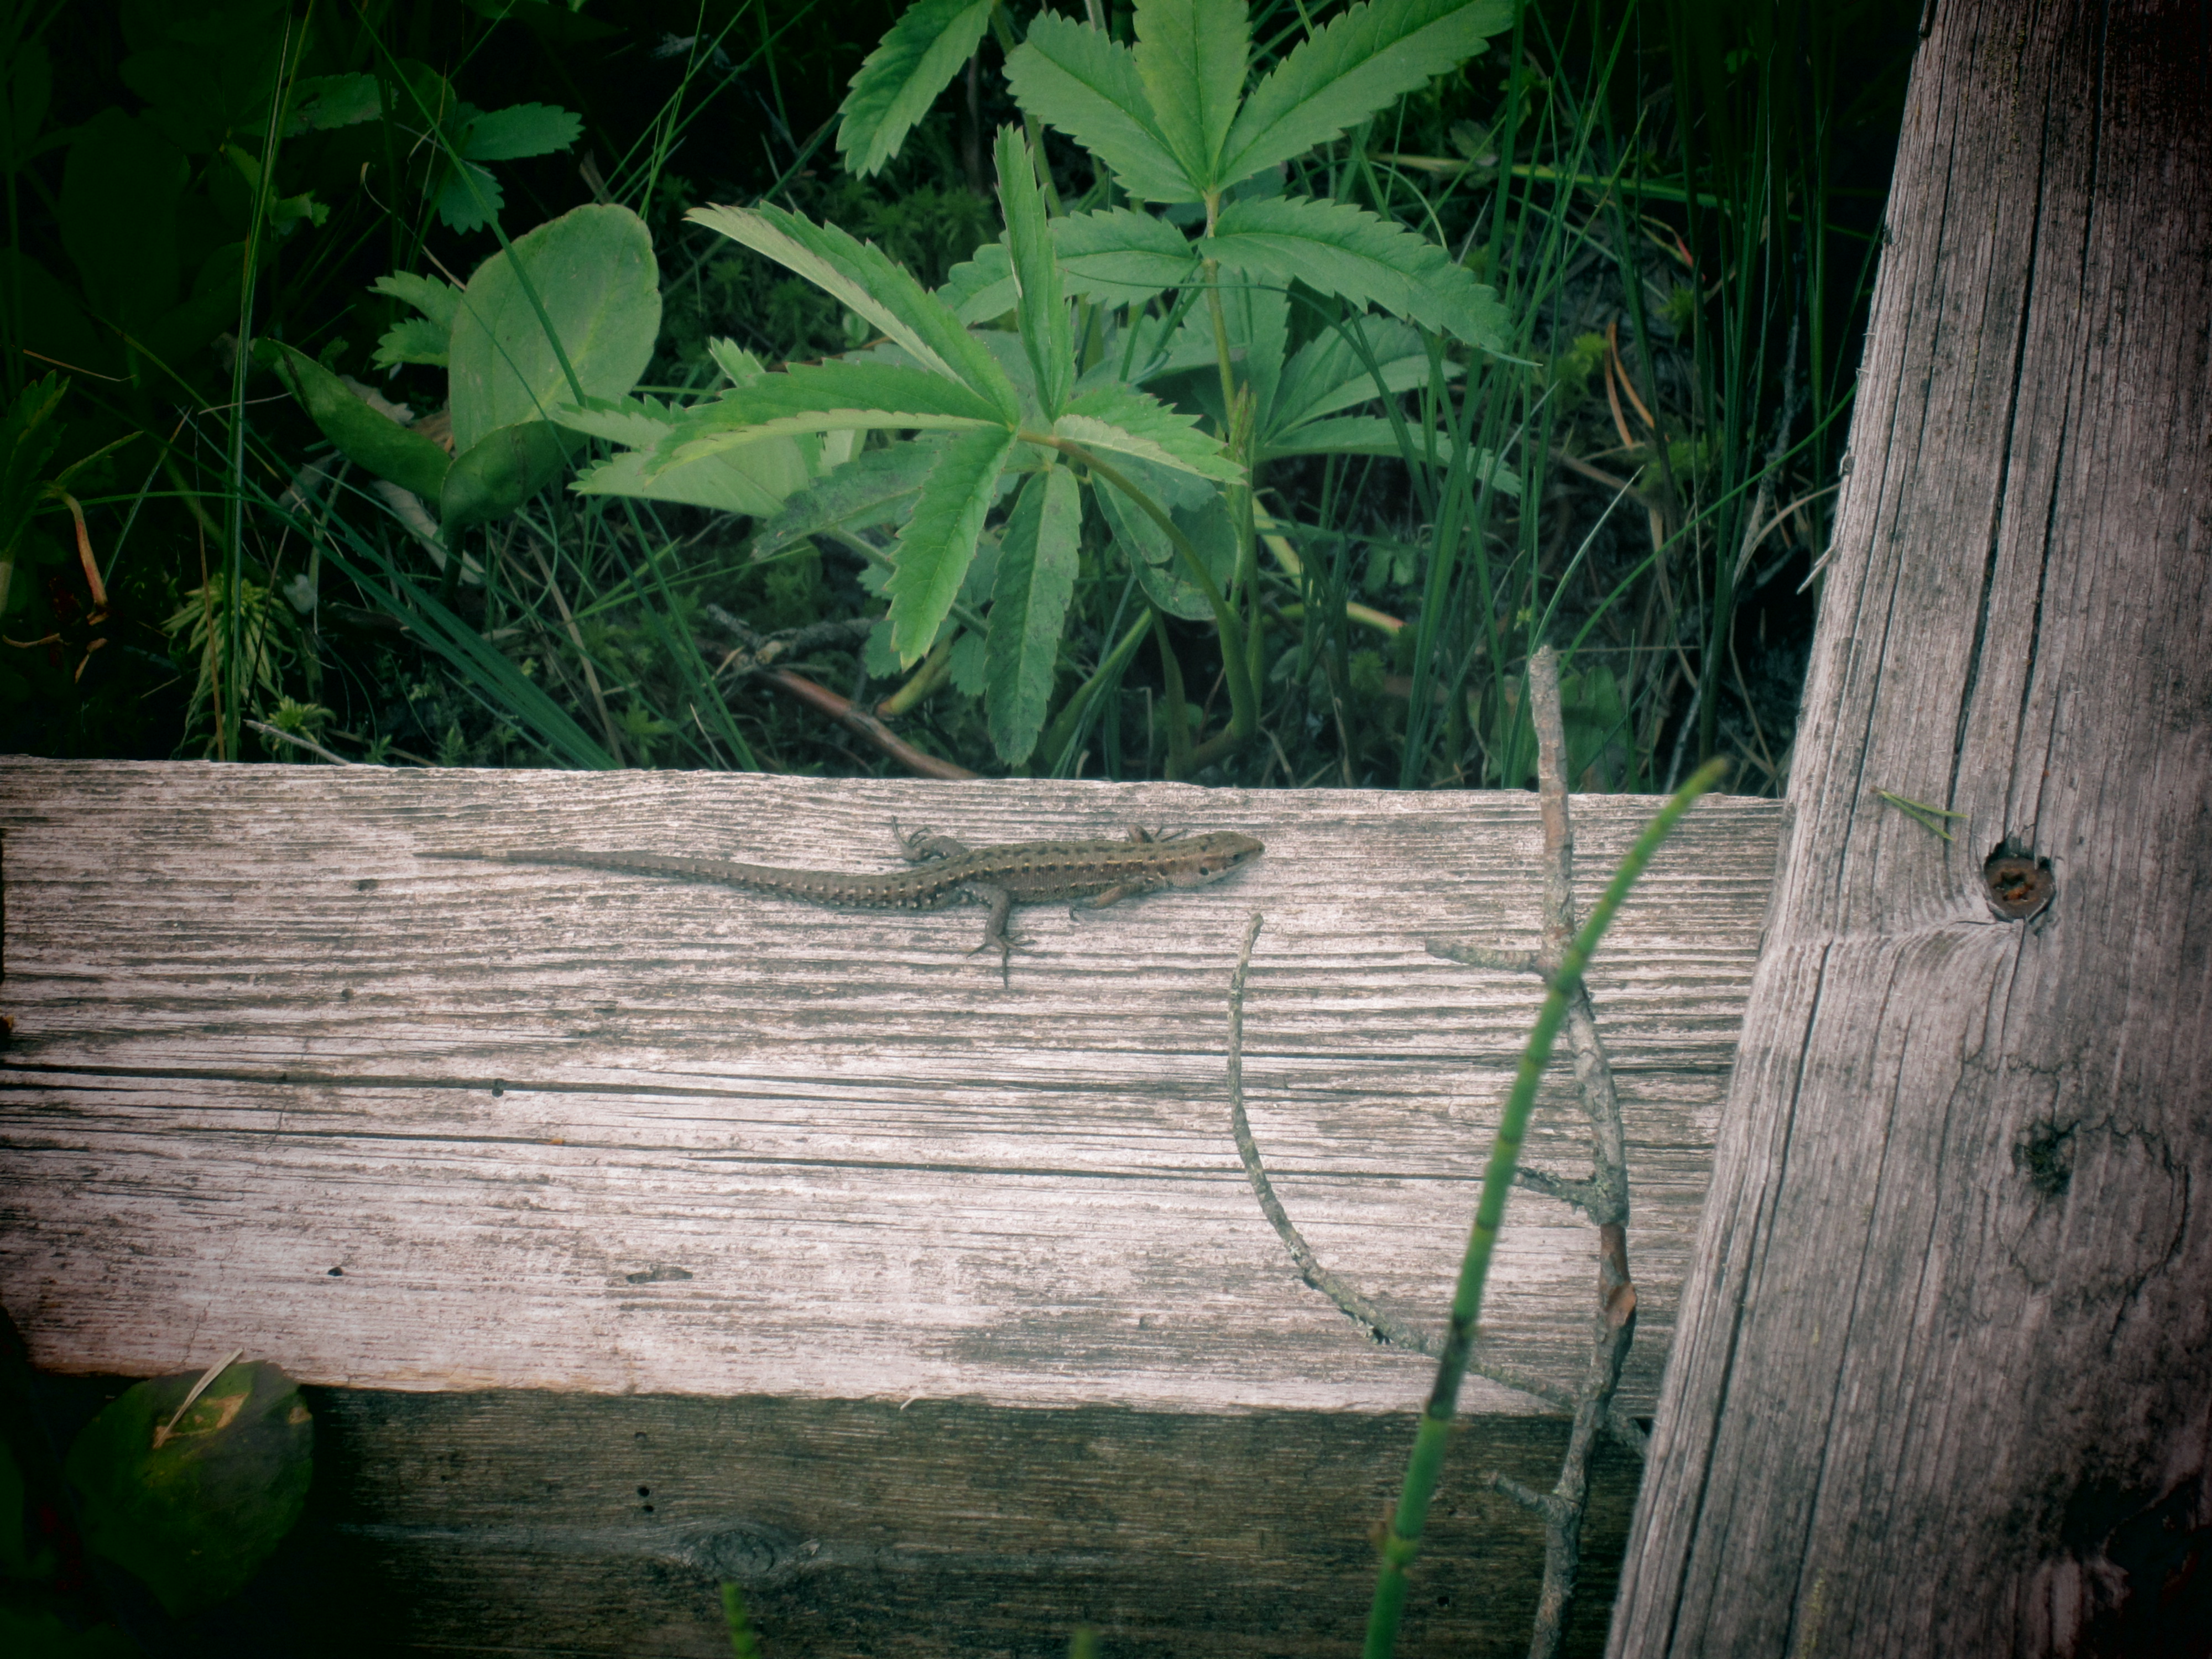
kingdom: Animalia
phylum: Chordata
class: Squamata
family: Lacertidae
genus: Zootoca
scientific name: Zootoca vivipara
